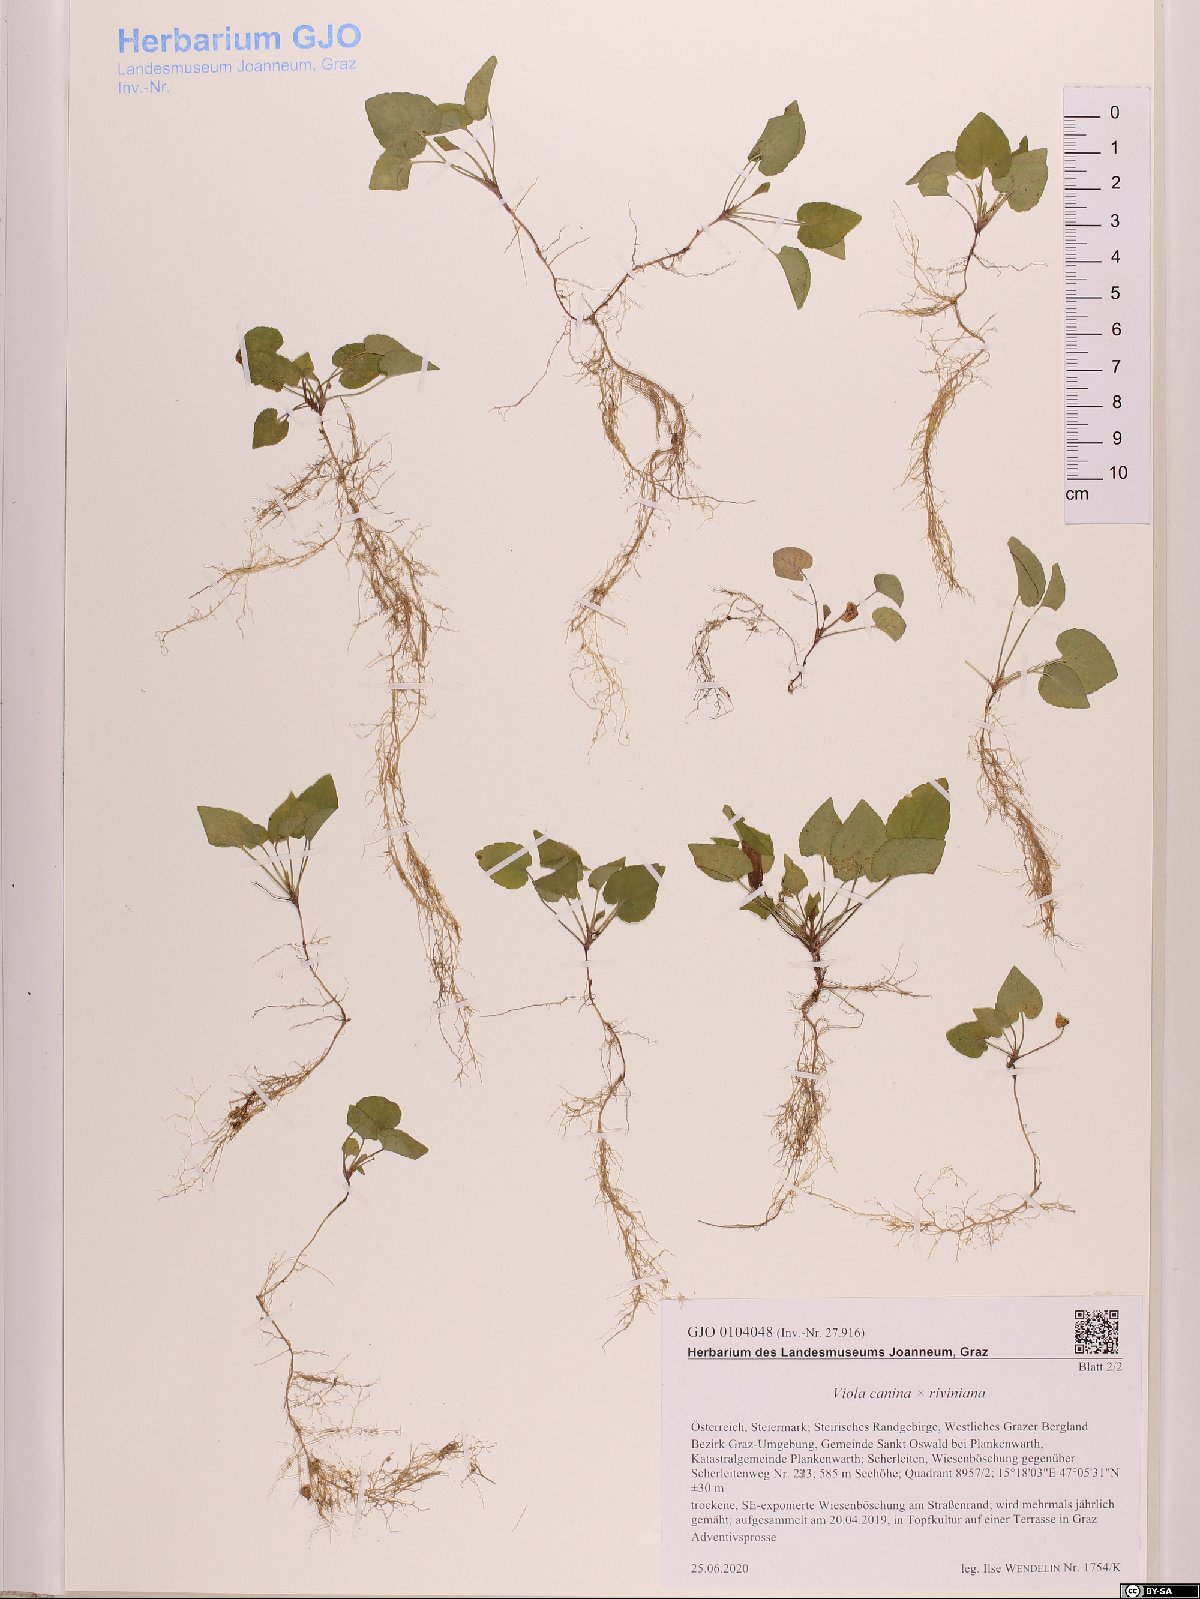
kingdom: Plantae
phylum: Tracheophyta
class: Magnoliopsida
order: Malpighiales
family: Violaceae
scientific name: Violaceae
